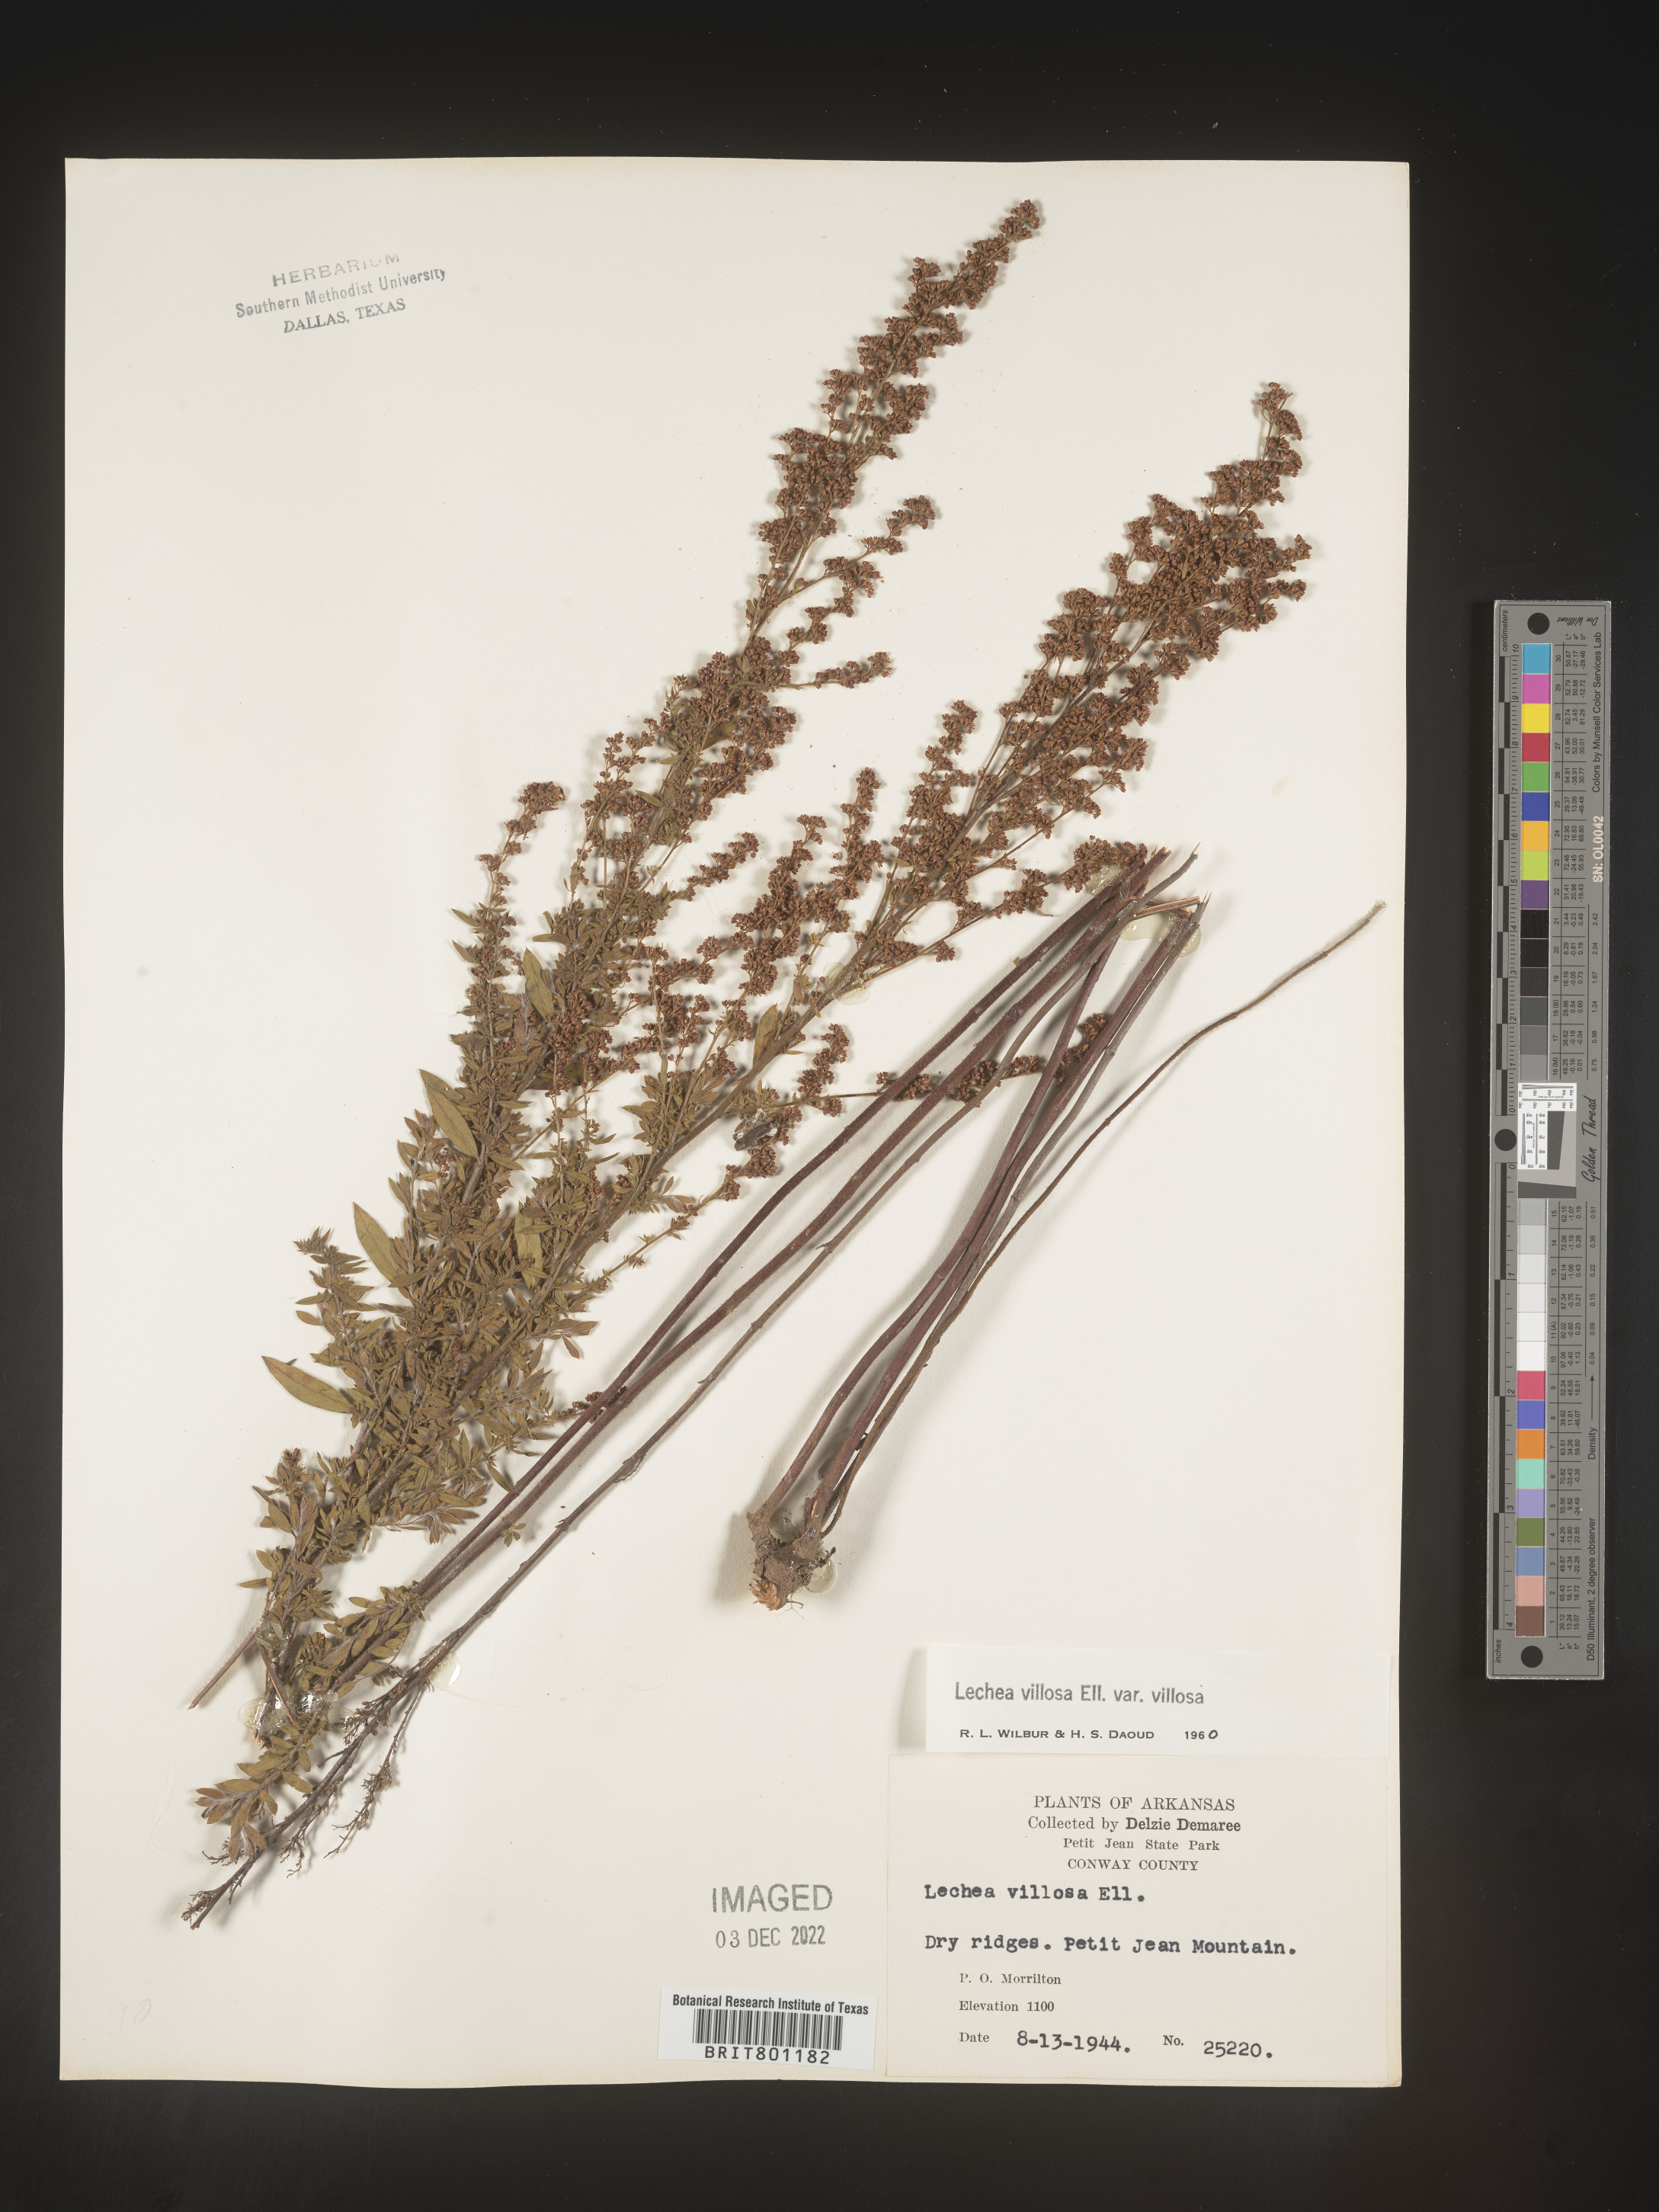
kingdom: Plantae
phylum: Tracheophyta
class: Magnoliopsida
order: Malvales
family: Cistaceae
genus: Lechea
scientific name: Lechea mucronata
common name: Hairy pinweed
